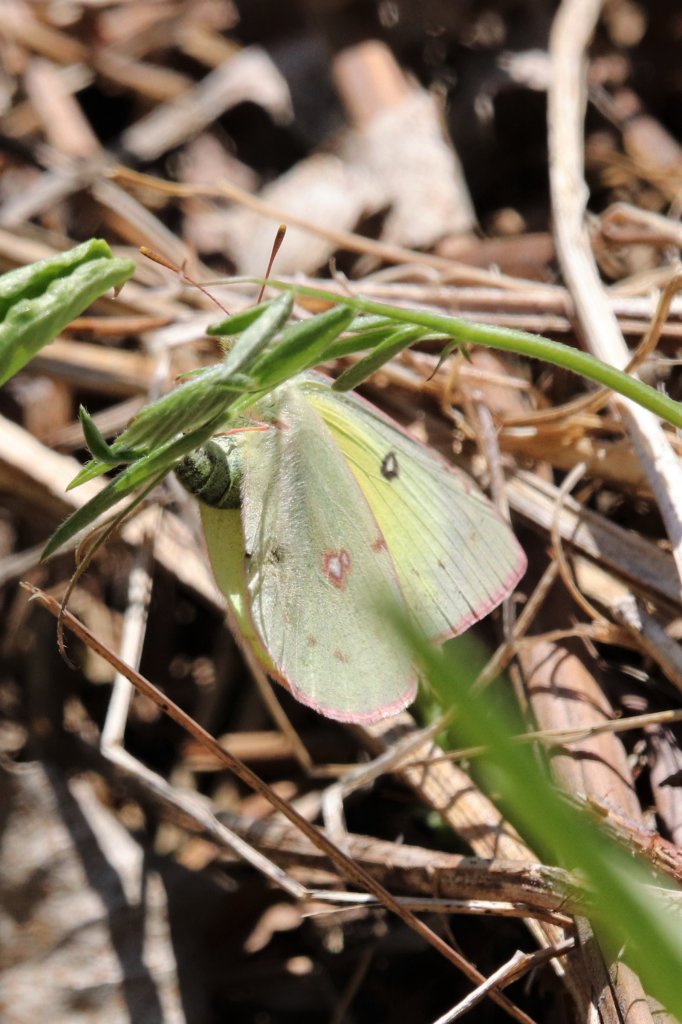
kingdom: Animalia
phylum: Arthropoda
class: Insecta
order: Lepidoptera
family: Pieridae
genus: Colias
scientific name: Colias philodice
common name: Clouded Sulphur
